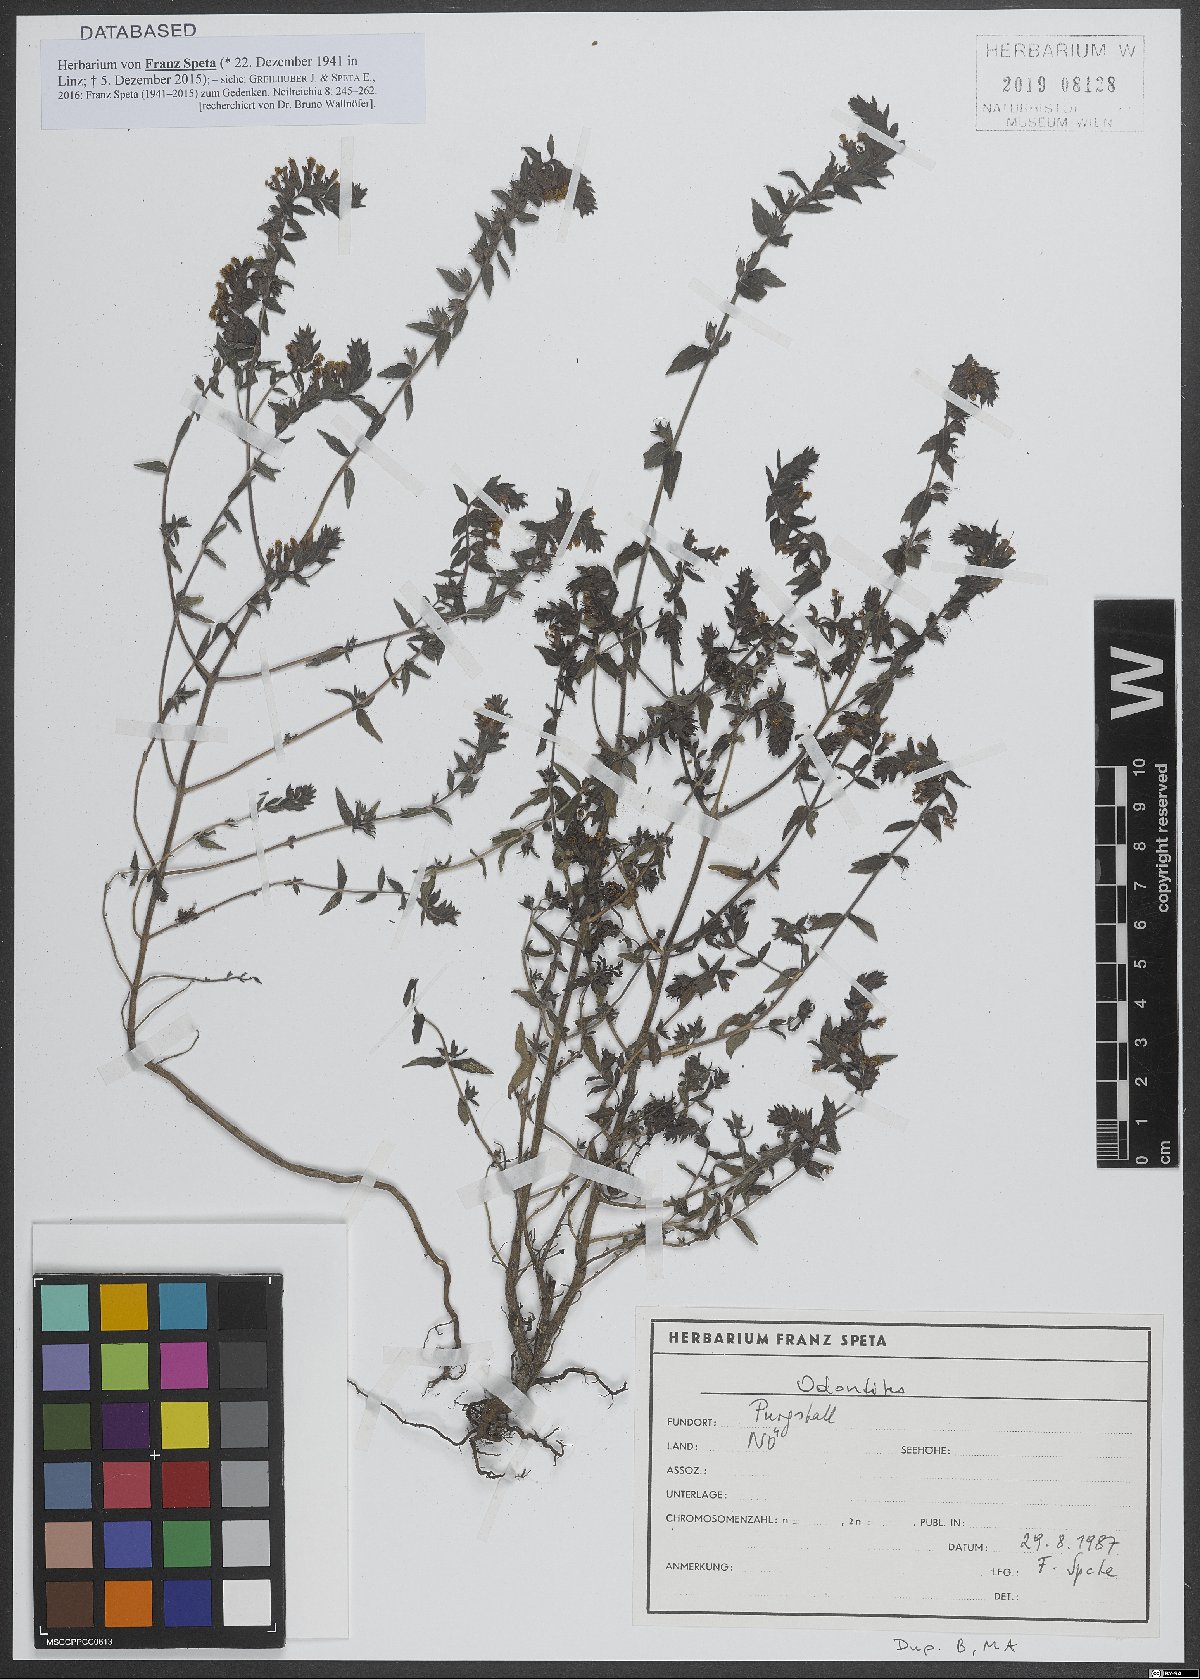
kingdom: Plantae
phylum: Tracheophyta
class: Magnoliopsida
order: Lamiales
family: Orobanchaceae
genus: Odontites
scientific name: Odontites
